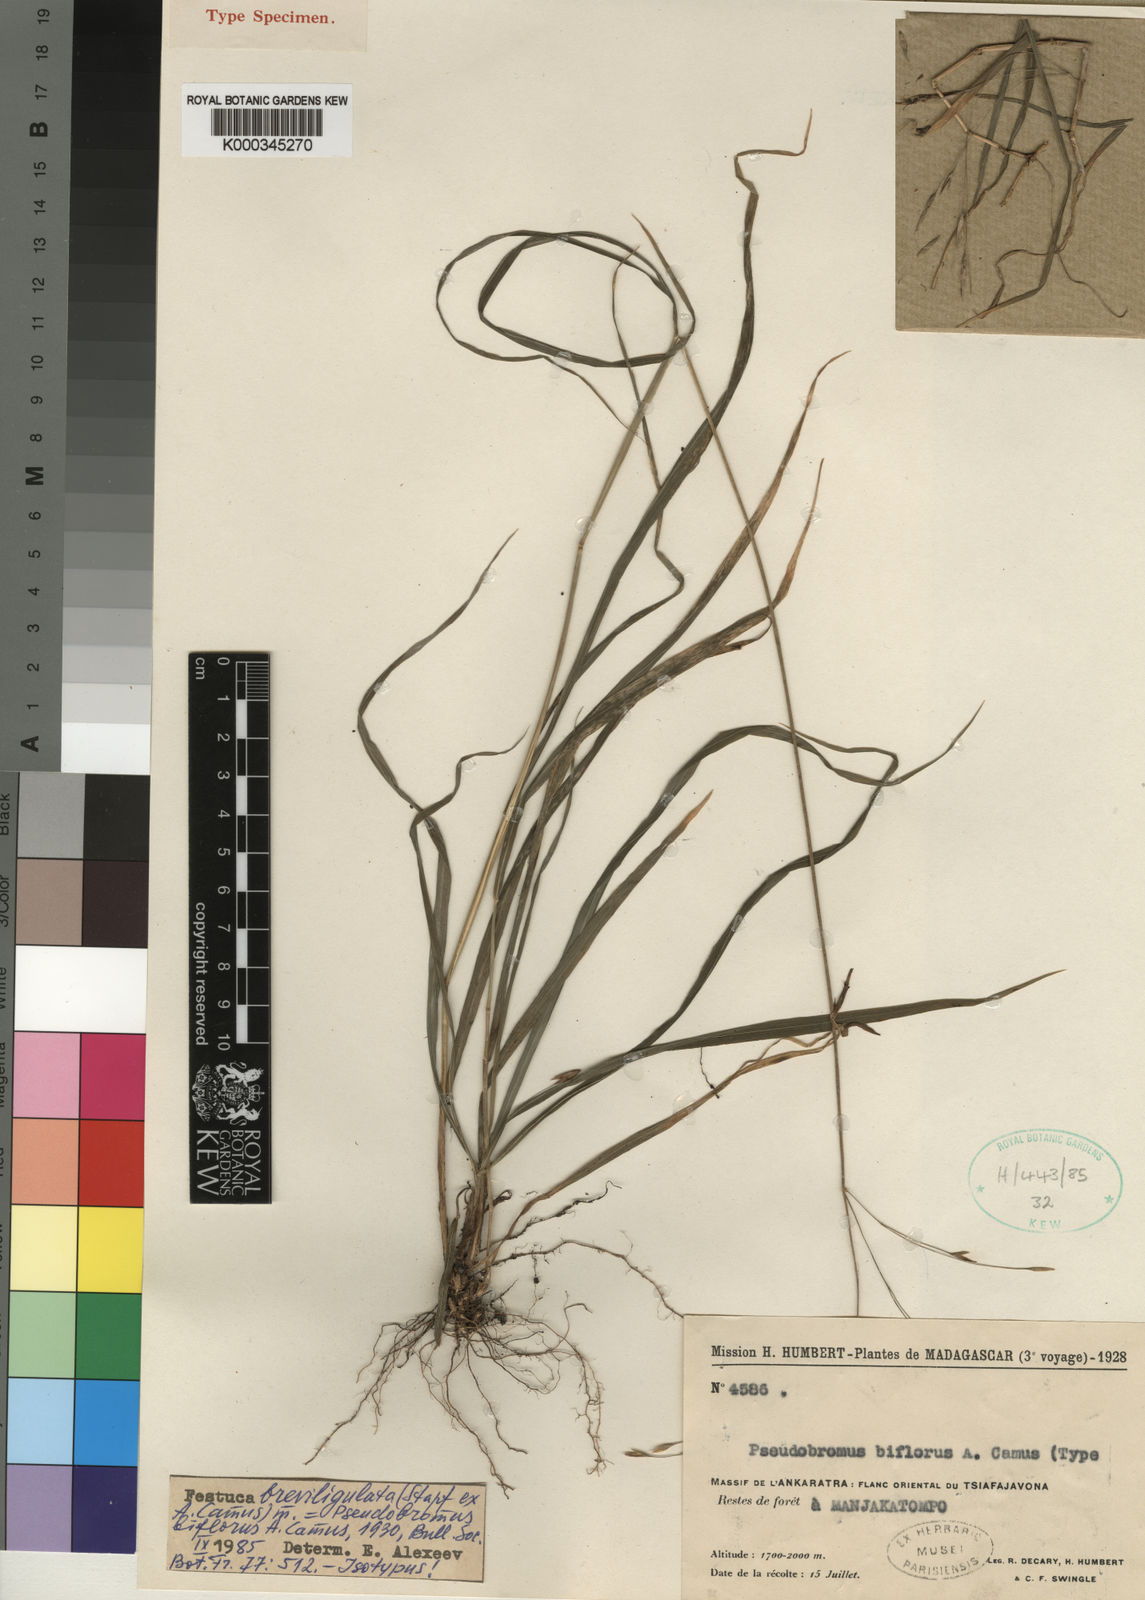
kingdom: Plantae
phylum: Tracheophyta
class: Liliopsida
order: Poales
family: Poaceae
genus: Festuca
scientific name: Festuca
